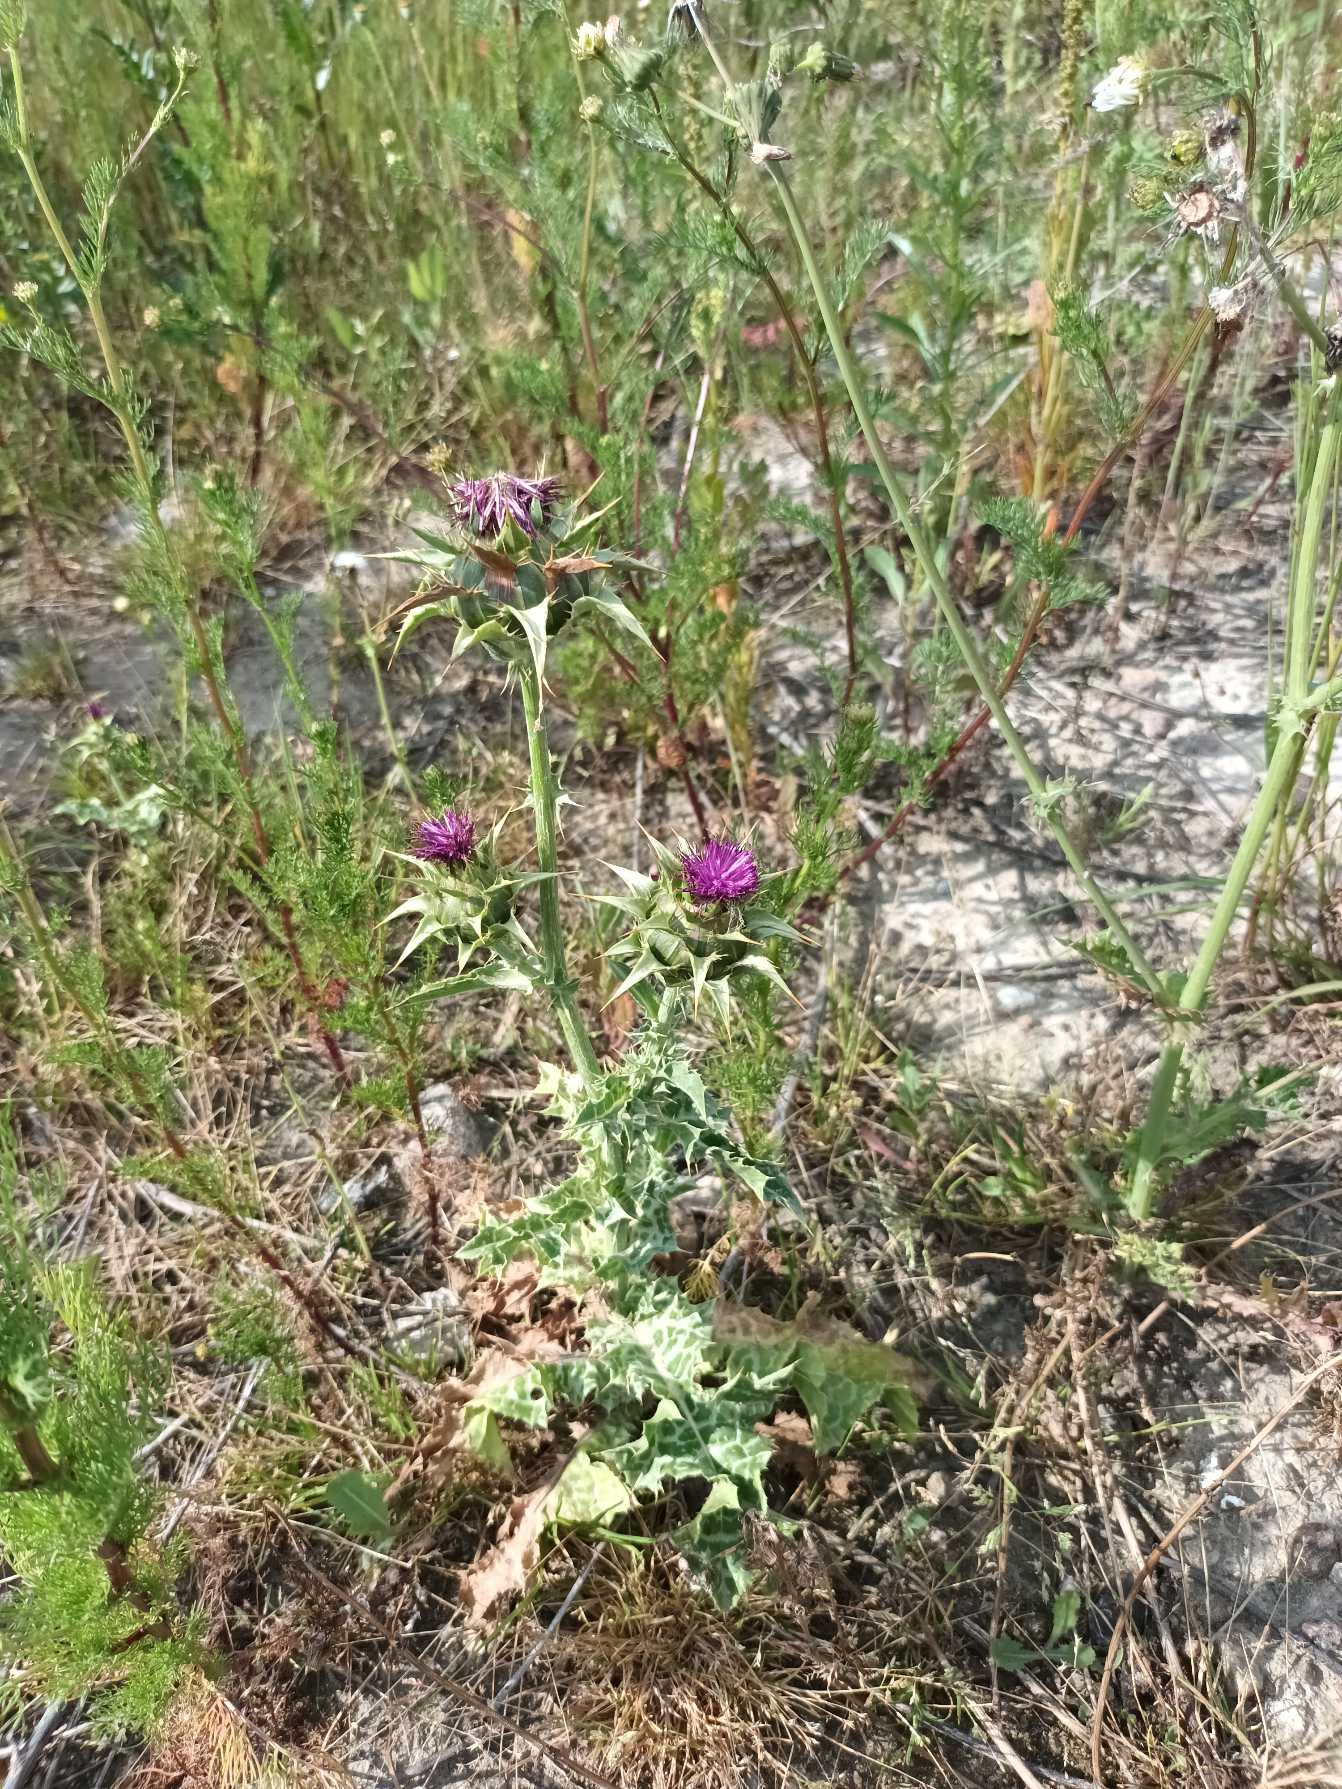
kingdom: Plantae
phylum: Tracheophyta
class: Magnoliopsida
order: Asterales
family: Asteraceae
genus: Silybum
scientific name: Silybum marianum
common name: Marietidsel
